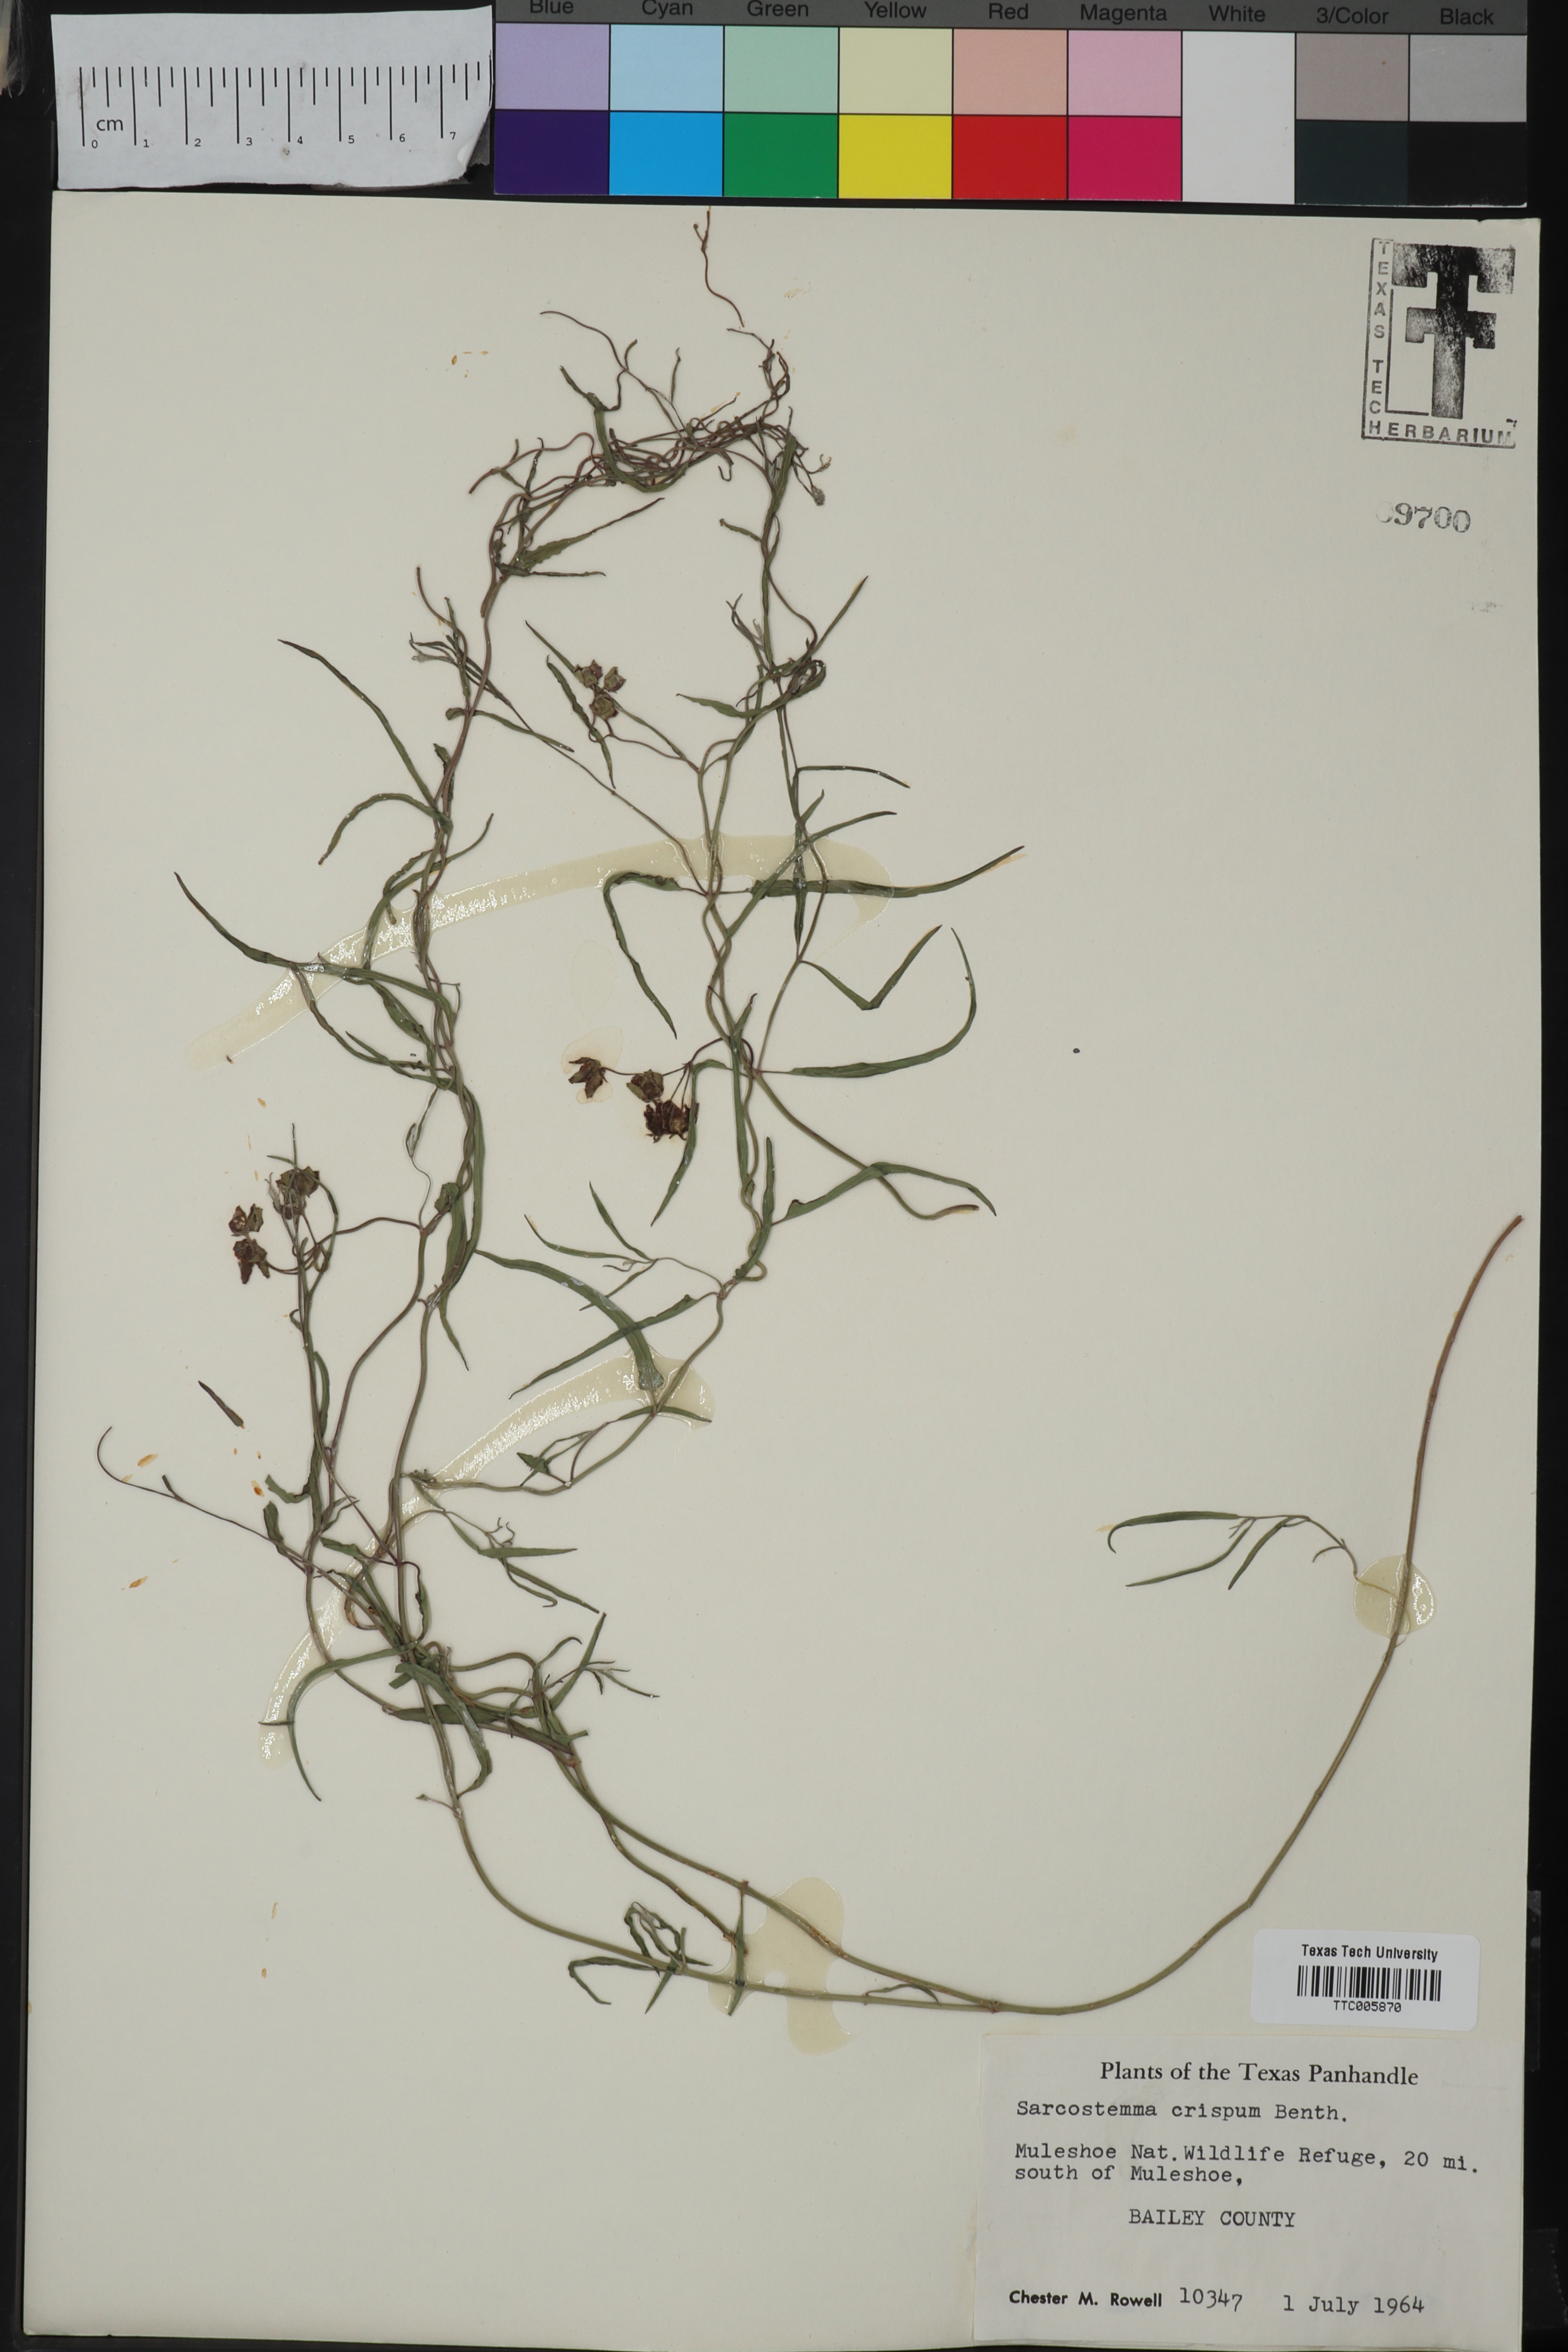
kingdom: Plantae
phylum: Tracheophyta
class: Magnoliopsida
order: Gentianales
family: Apocynaceae
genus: Funastrum
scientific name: Funastrum crispum
